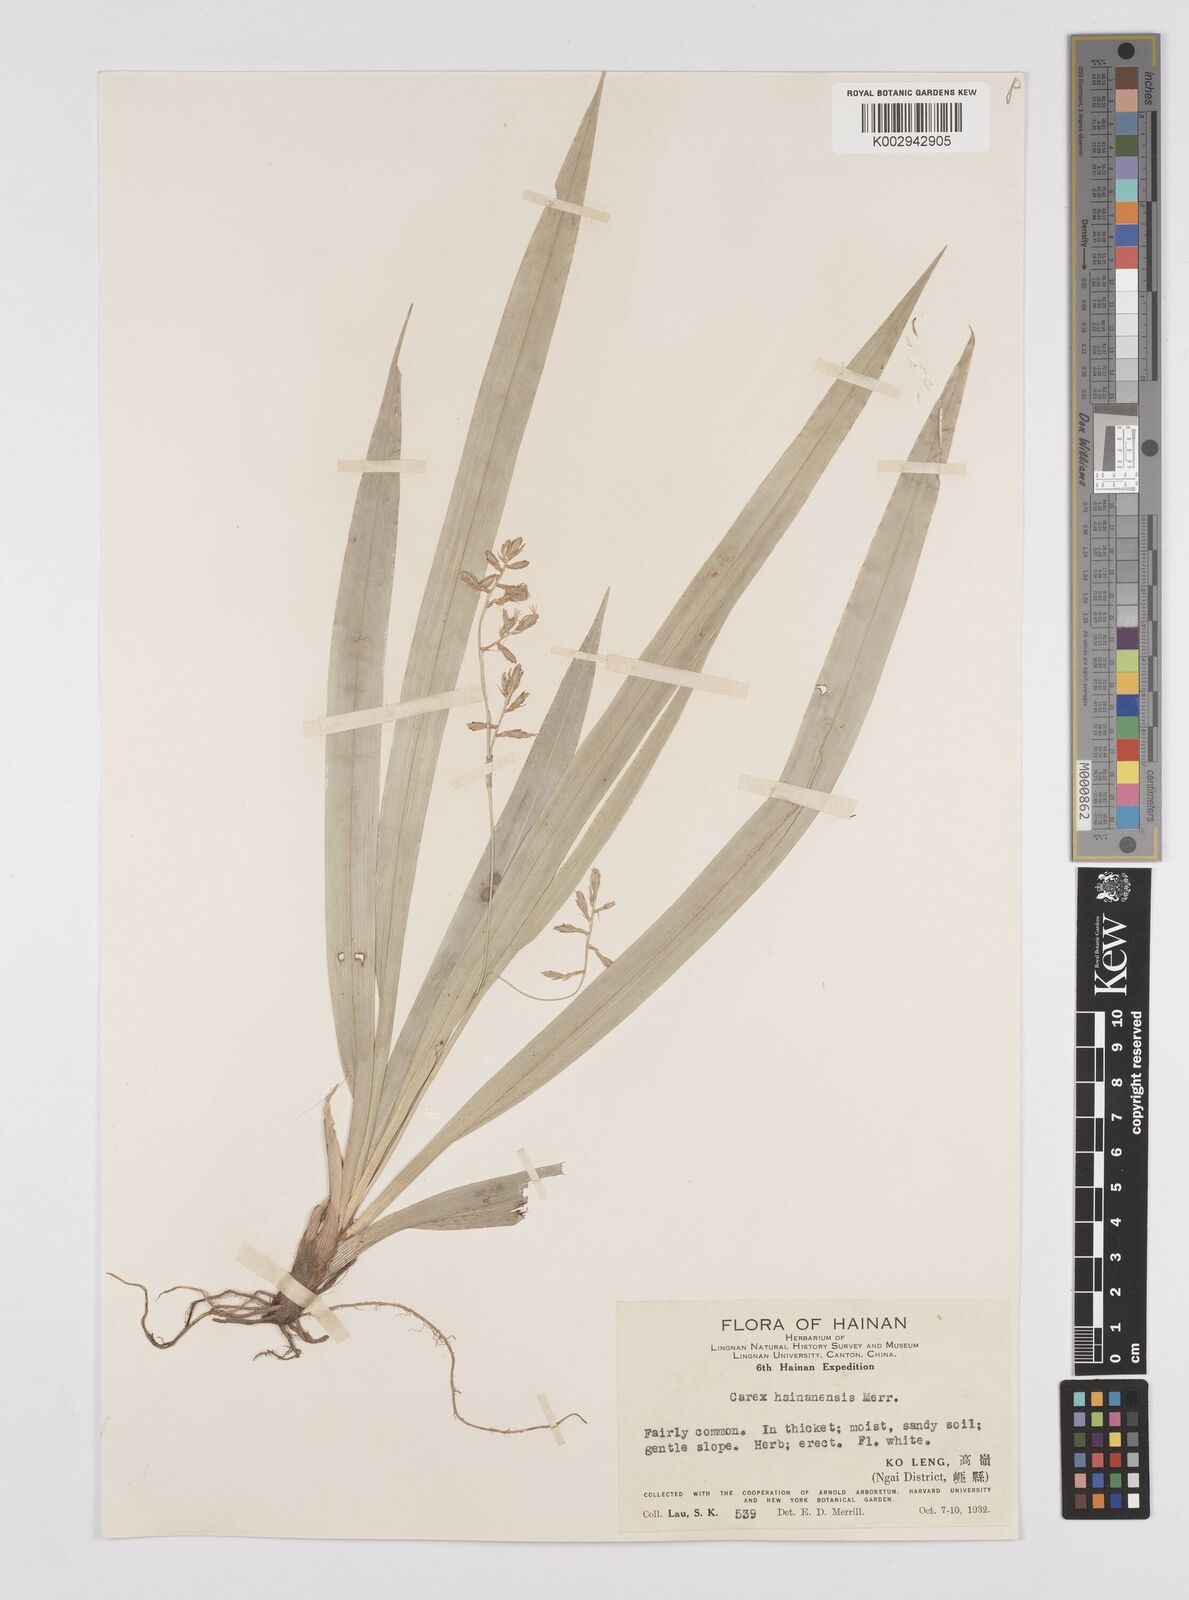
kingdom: Plantae
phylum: Tracheophyta
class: Liliopsida
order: Poales
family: Cyperaceae
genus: Carex
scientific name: Carex commixta
